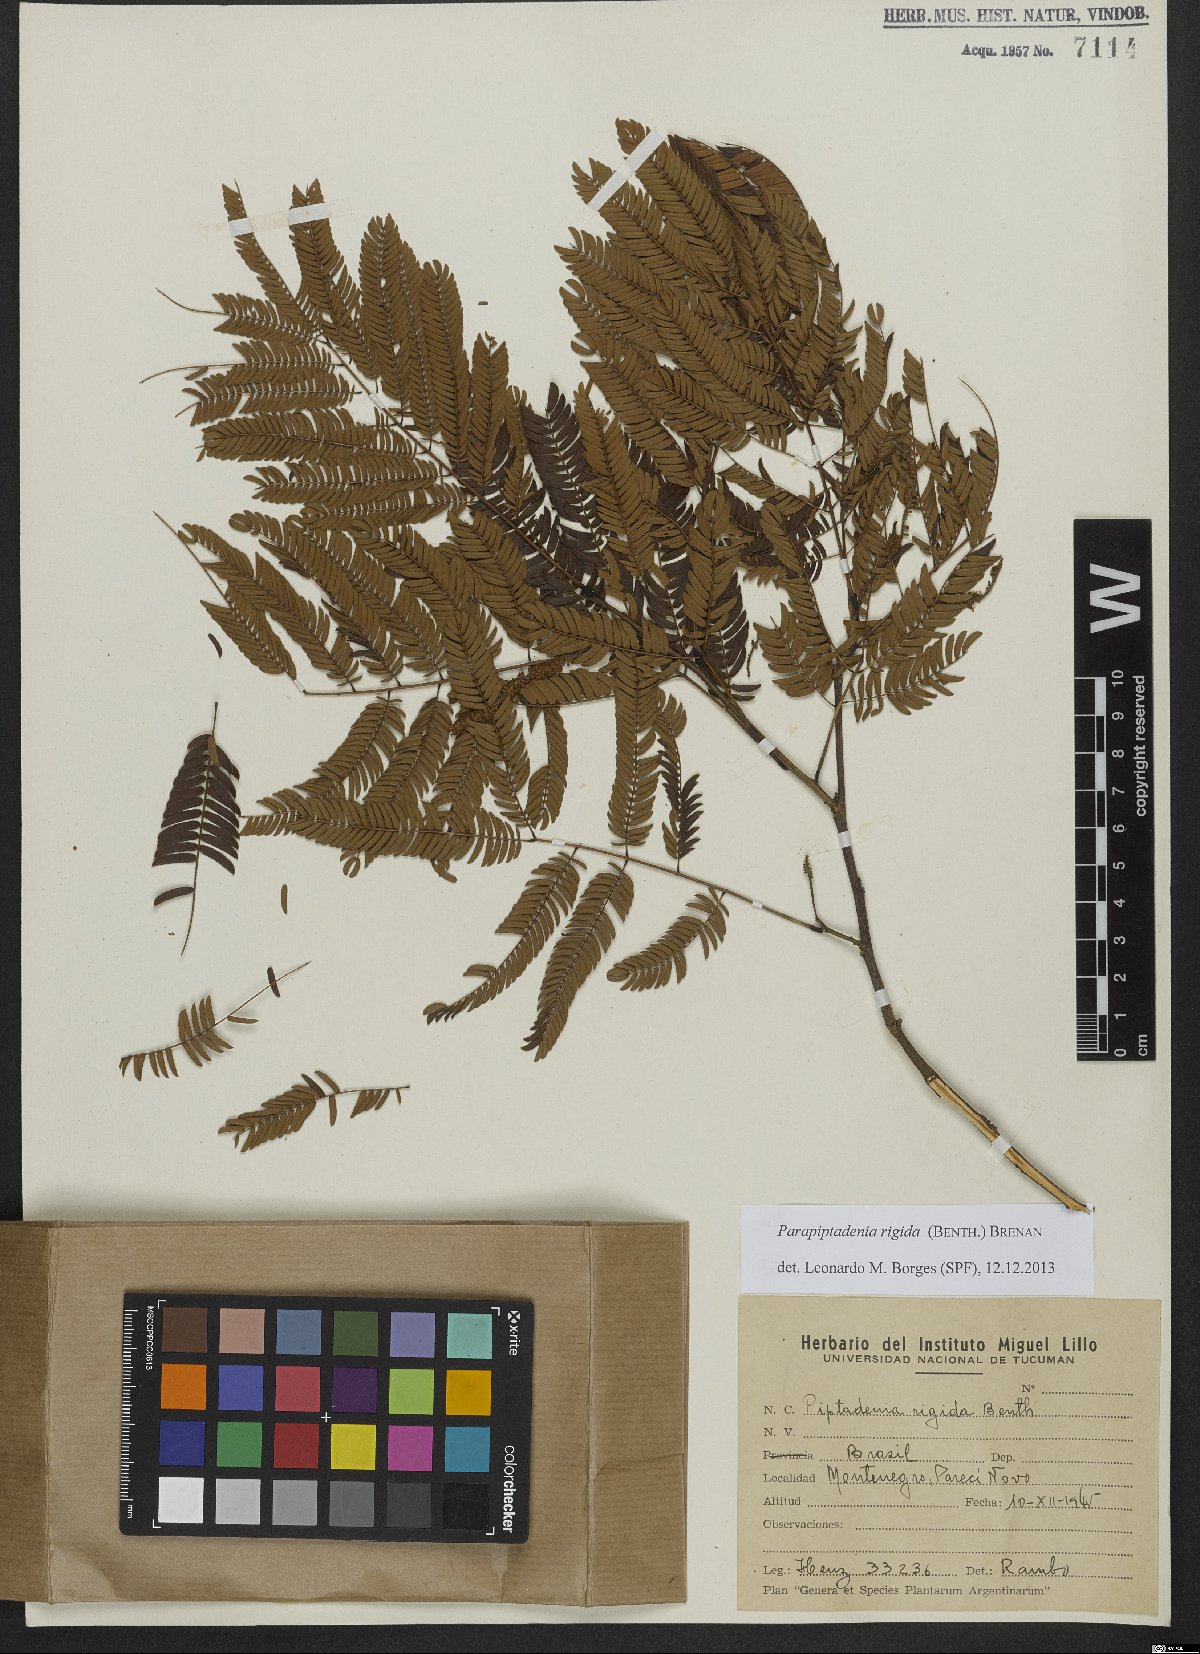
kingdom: Plantae
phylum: Tracheophyta
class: Magnoliopsida
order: Fabales
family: Fabaceae
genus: Parapiptadenia
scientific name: Parapiptadenia rigida
